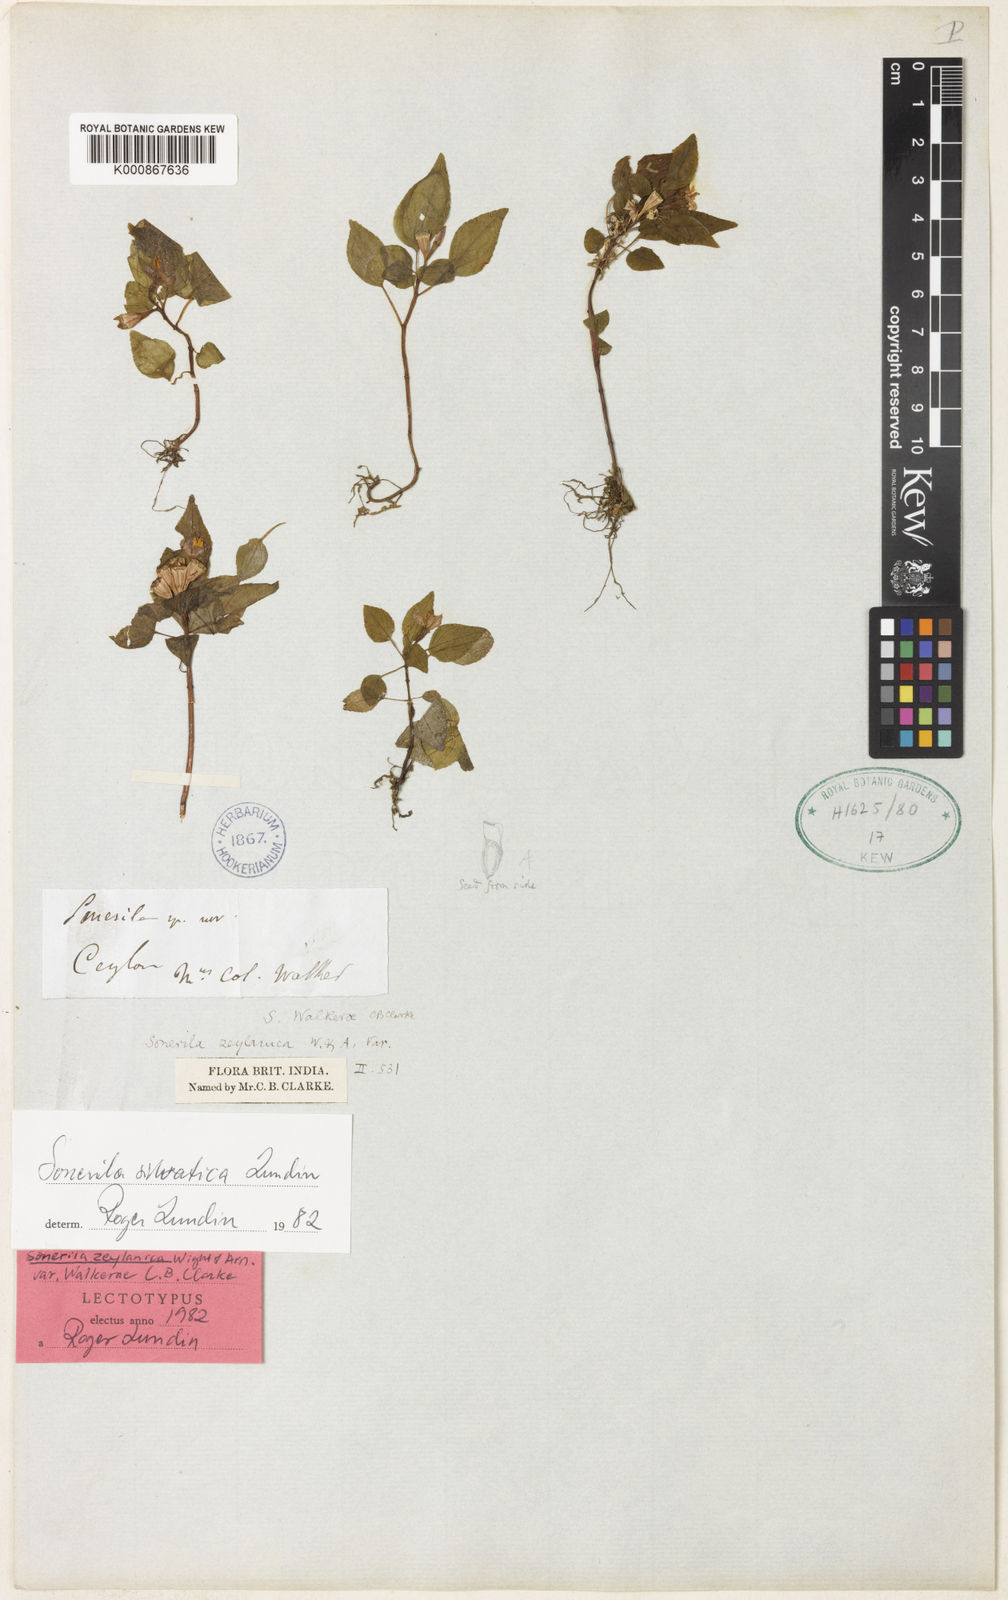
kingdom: Plantae
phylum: Tracheophyta
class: Magnoliopsida
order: Myrtales
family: Melastomataceae
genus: Sonerila
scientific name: Sonerila silvatica
